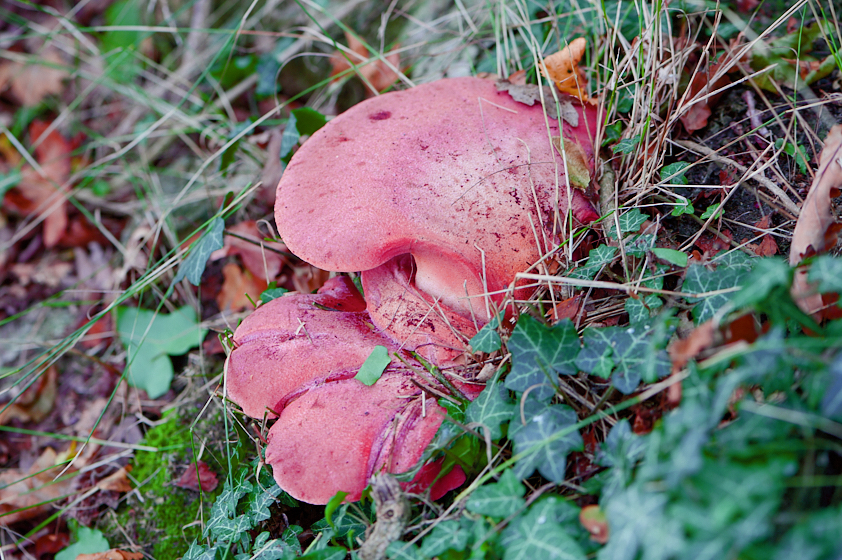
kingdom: Fungi
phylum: Basidiomycota
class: Agaricomycetes
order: Agaricales
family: Fistulinaceae
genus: Fistulina
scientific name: Fistulina hepatica
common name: oksetunge
